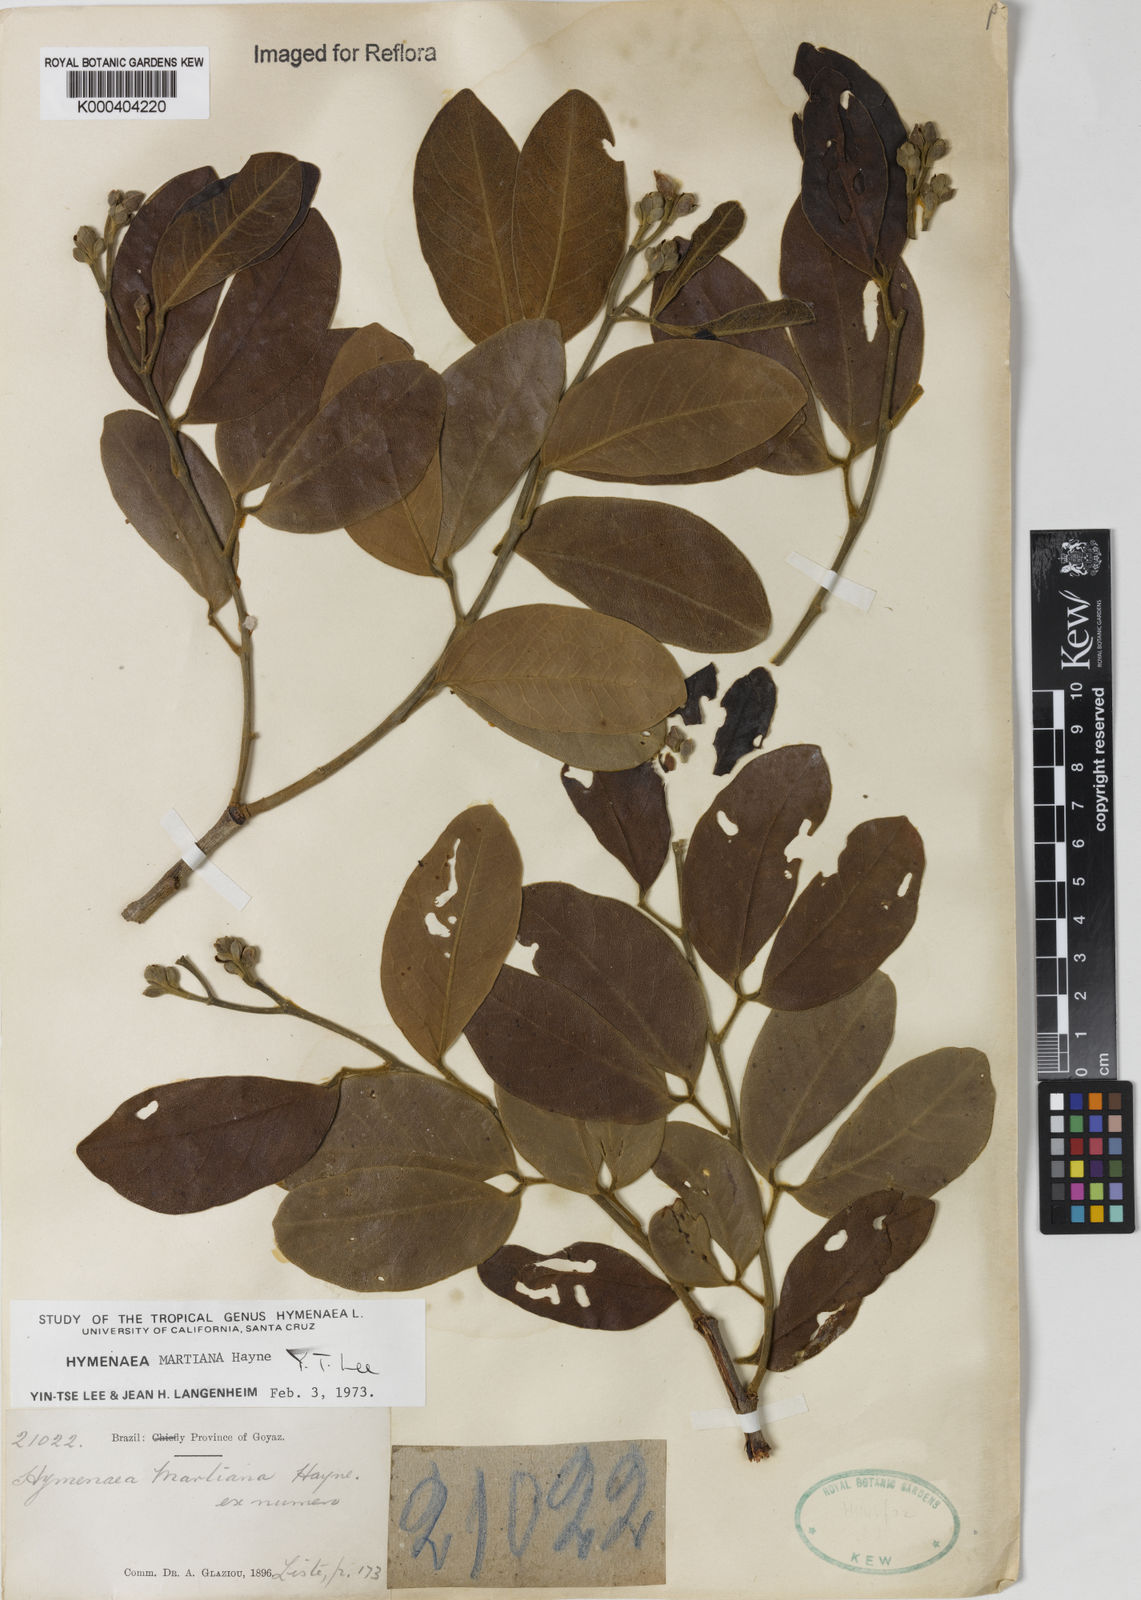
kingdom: Plantae
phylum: Tracheophyta
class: Magnoliopsida
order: Fabales
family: Fabaceae
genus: Hymenaea
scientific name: Hymenaea martiana
